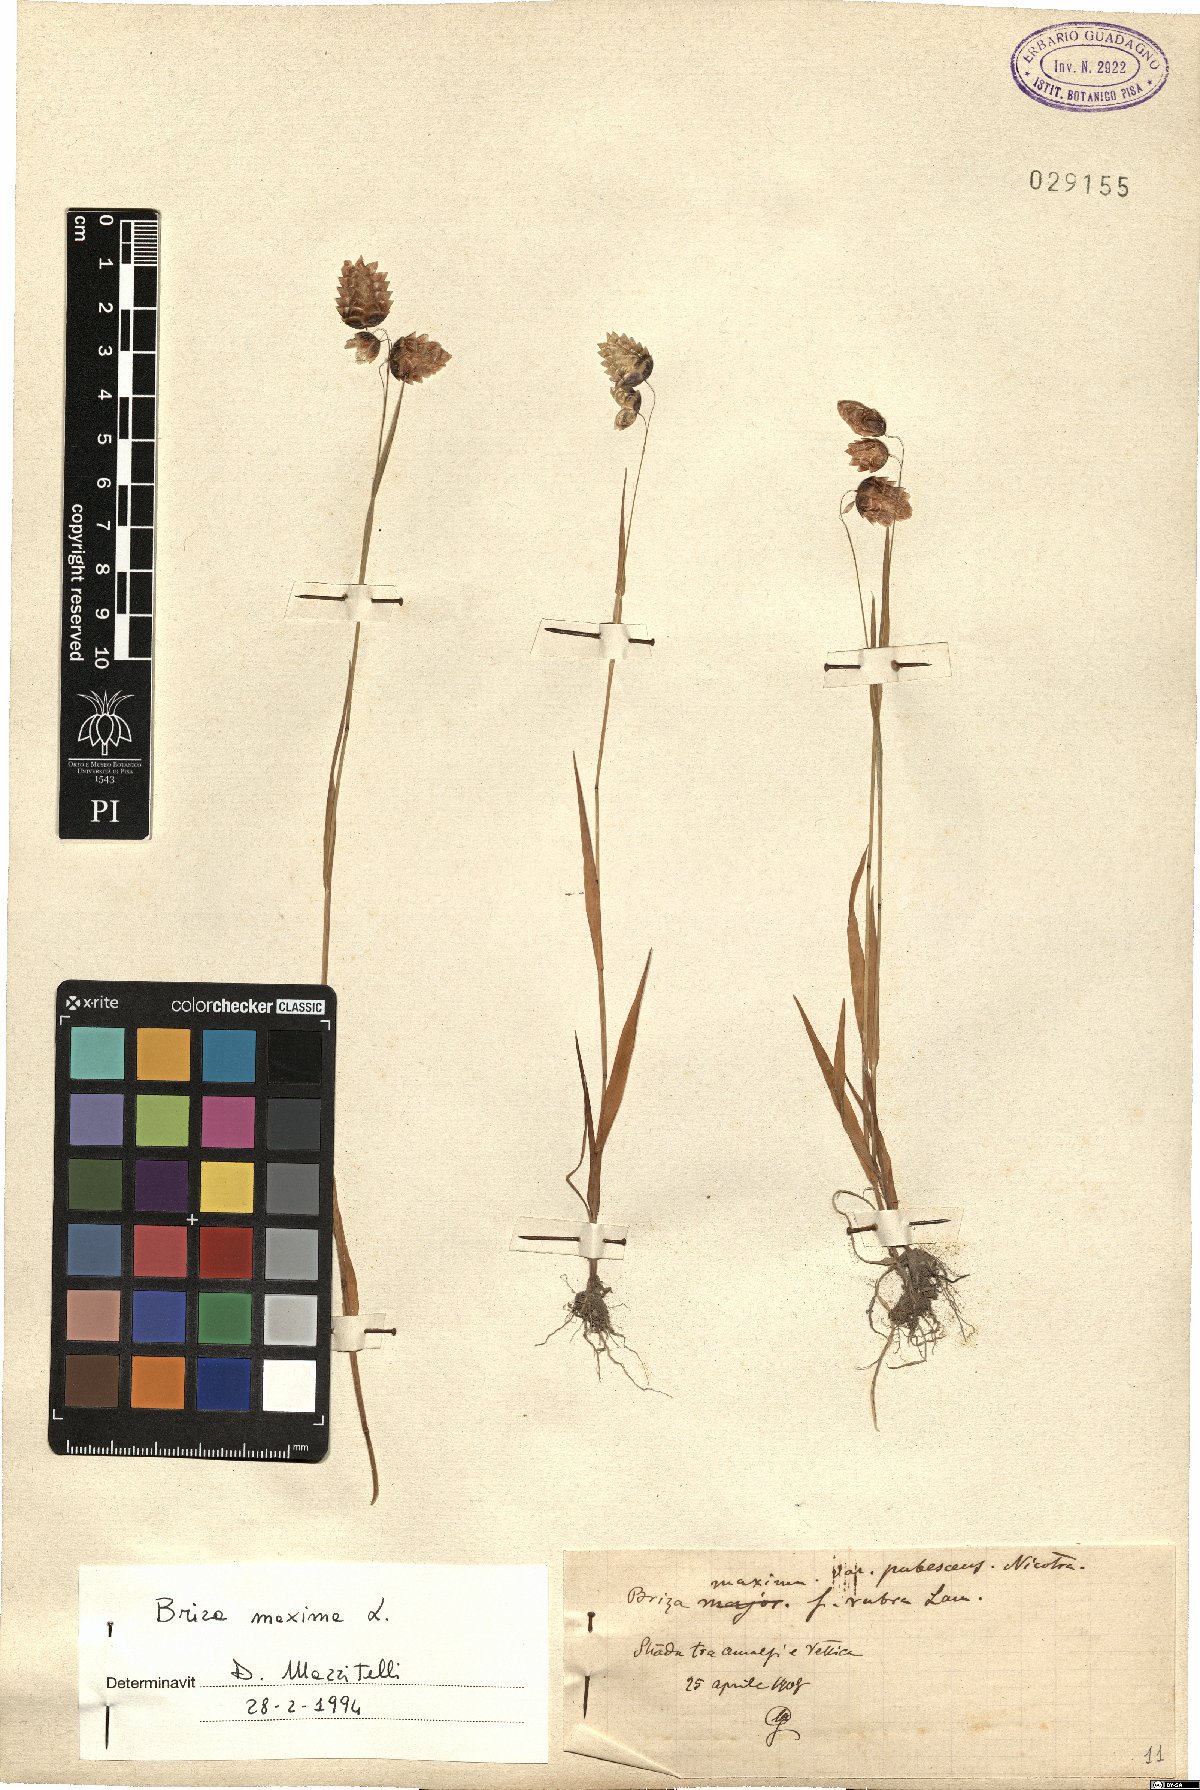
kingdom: Plantae
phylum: Tracheophyta
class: Liliopsida
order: Poales
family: Poaceae
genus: Briza
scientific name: Briza maxima
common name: Big quakinggrass
